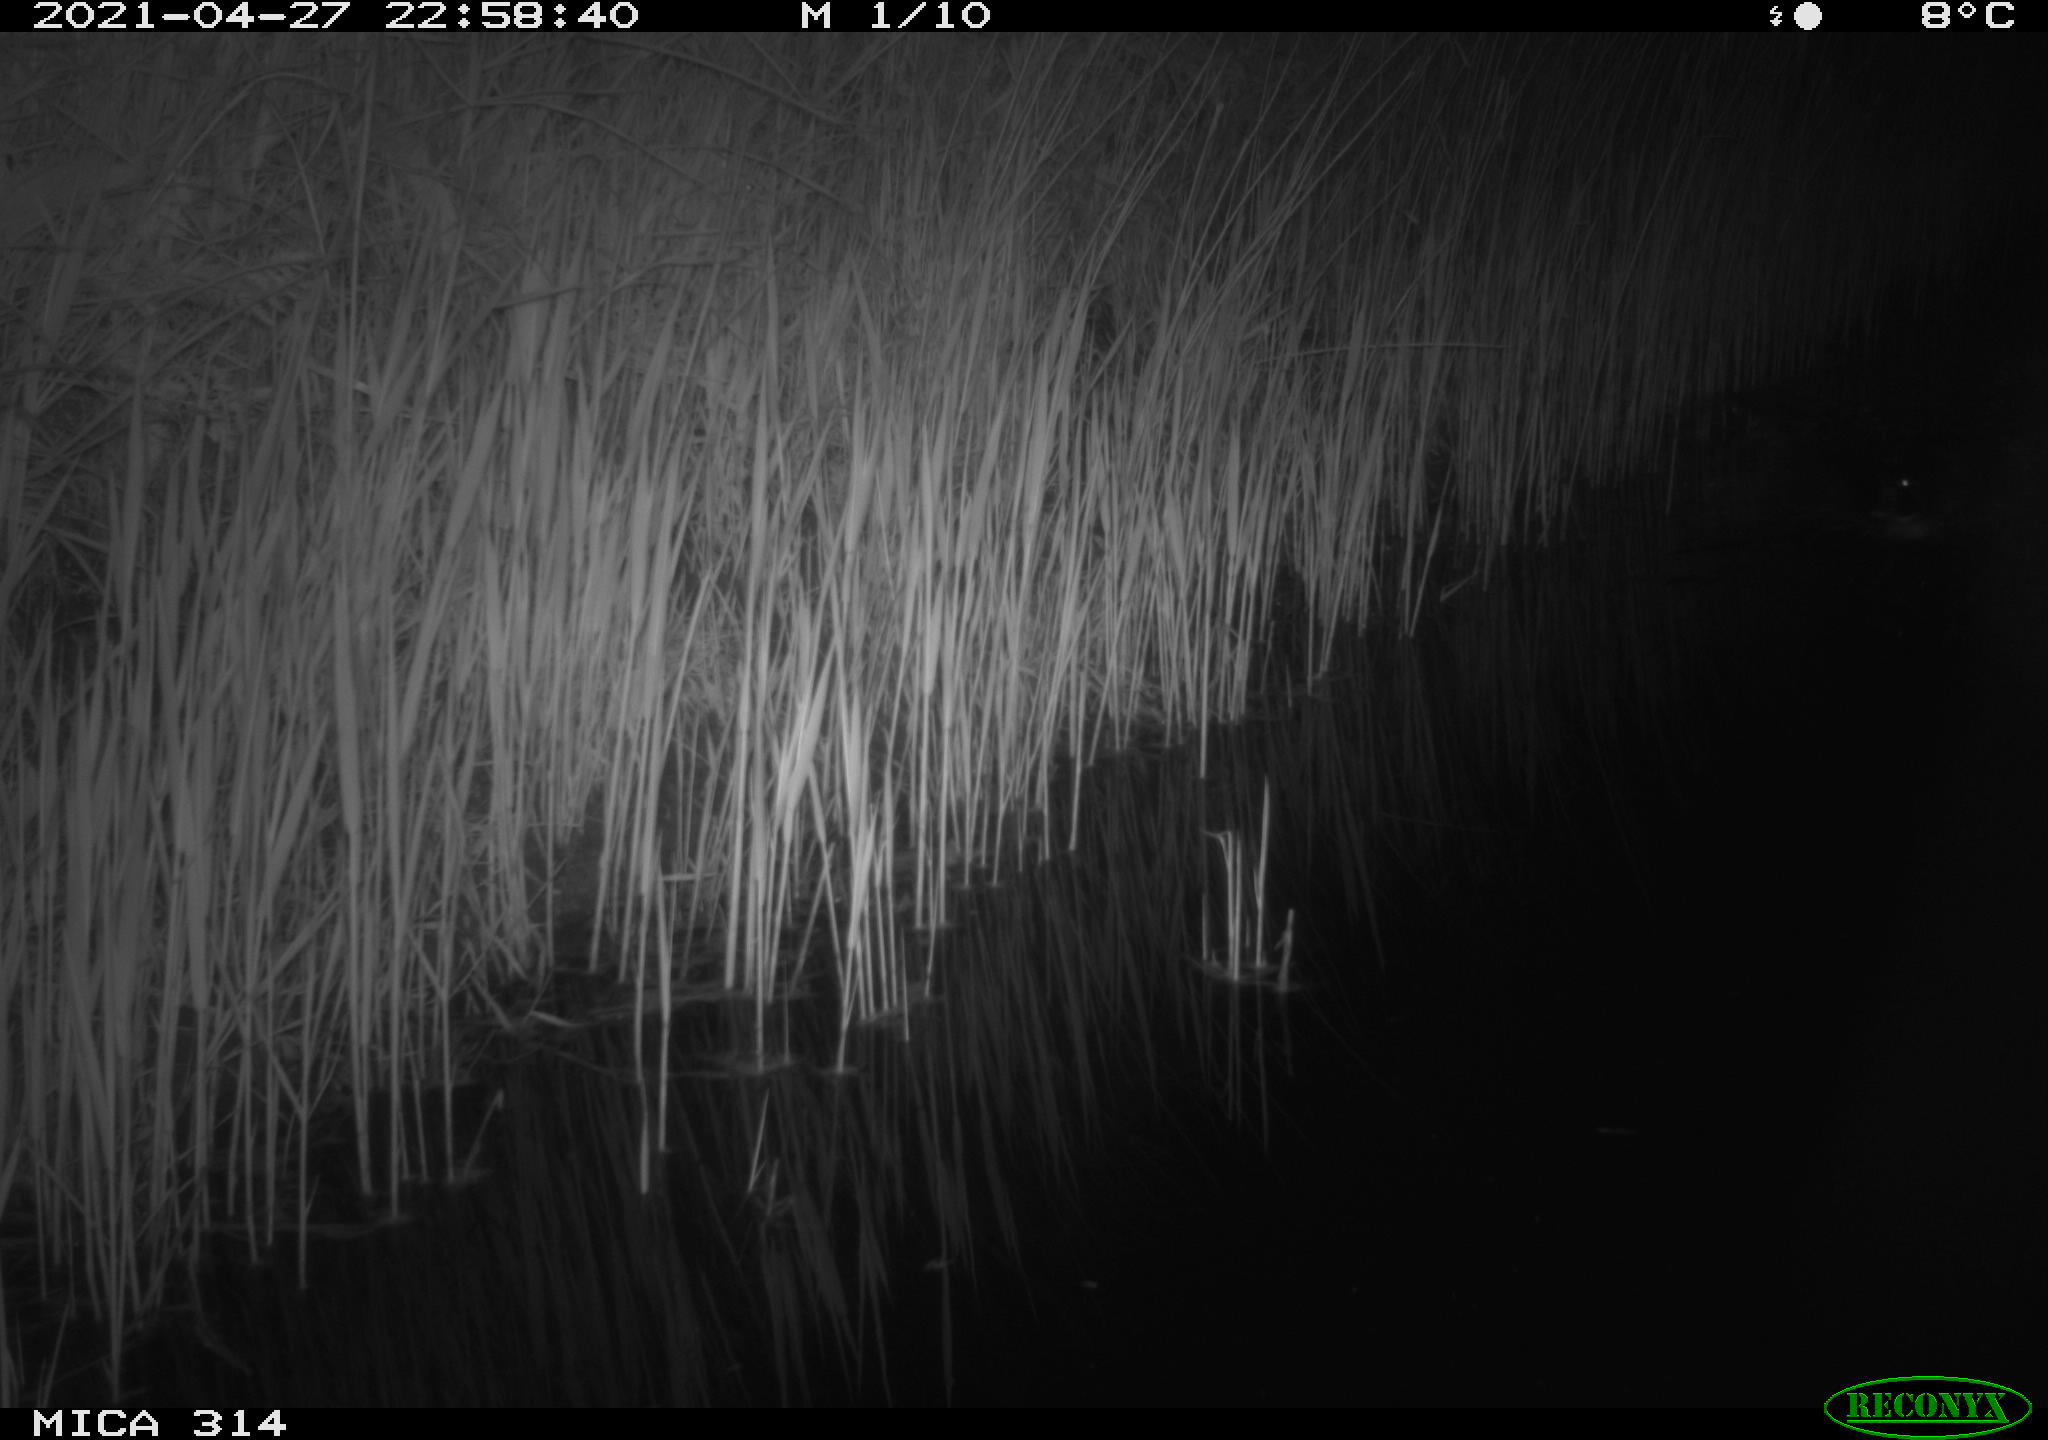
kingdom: Animalia
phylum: Chordata
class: Aves
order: Anseriformes
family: Anatidae
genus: Anas
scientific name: Anas platyrhynchos
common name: Mallard
